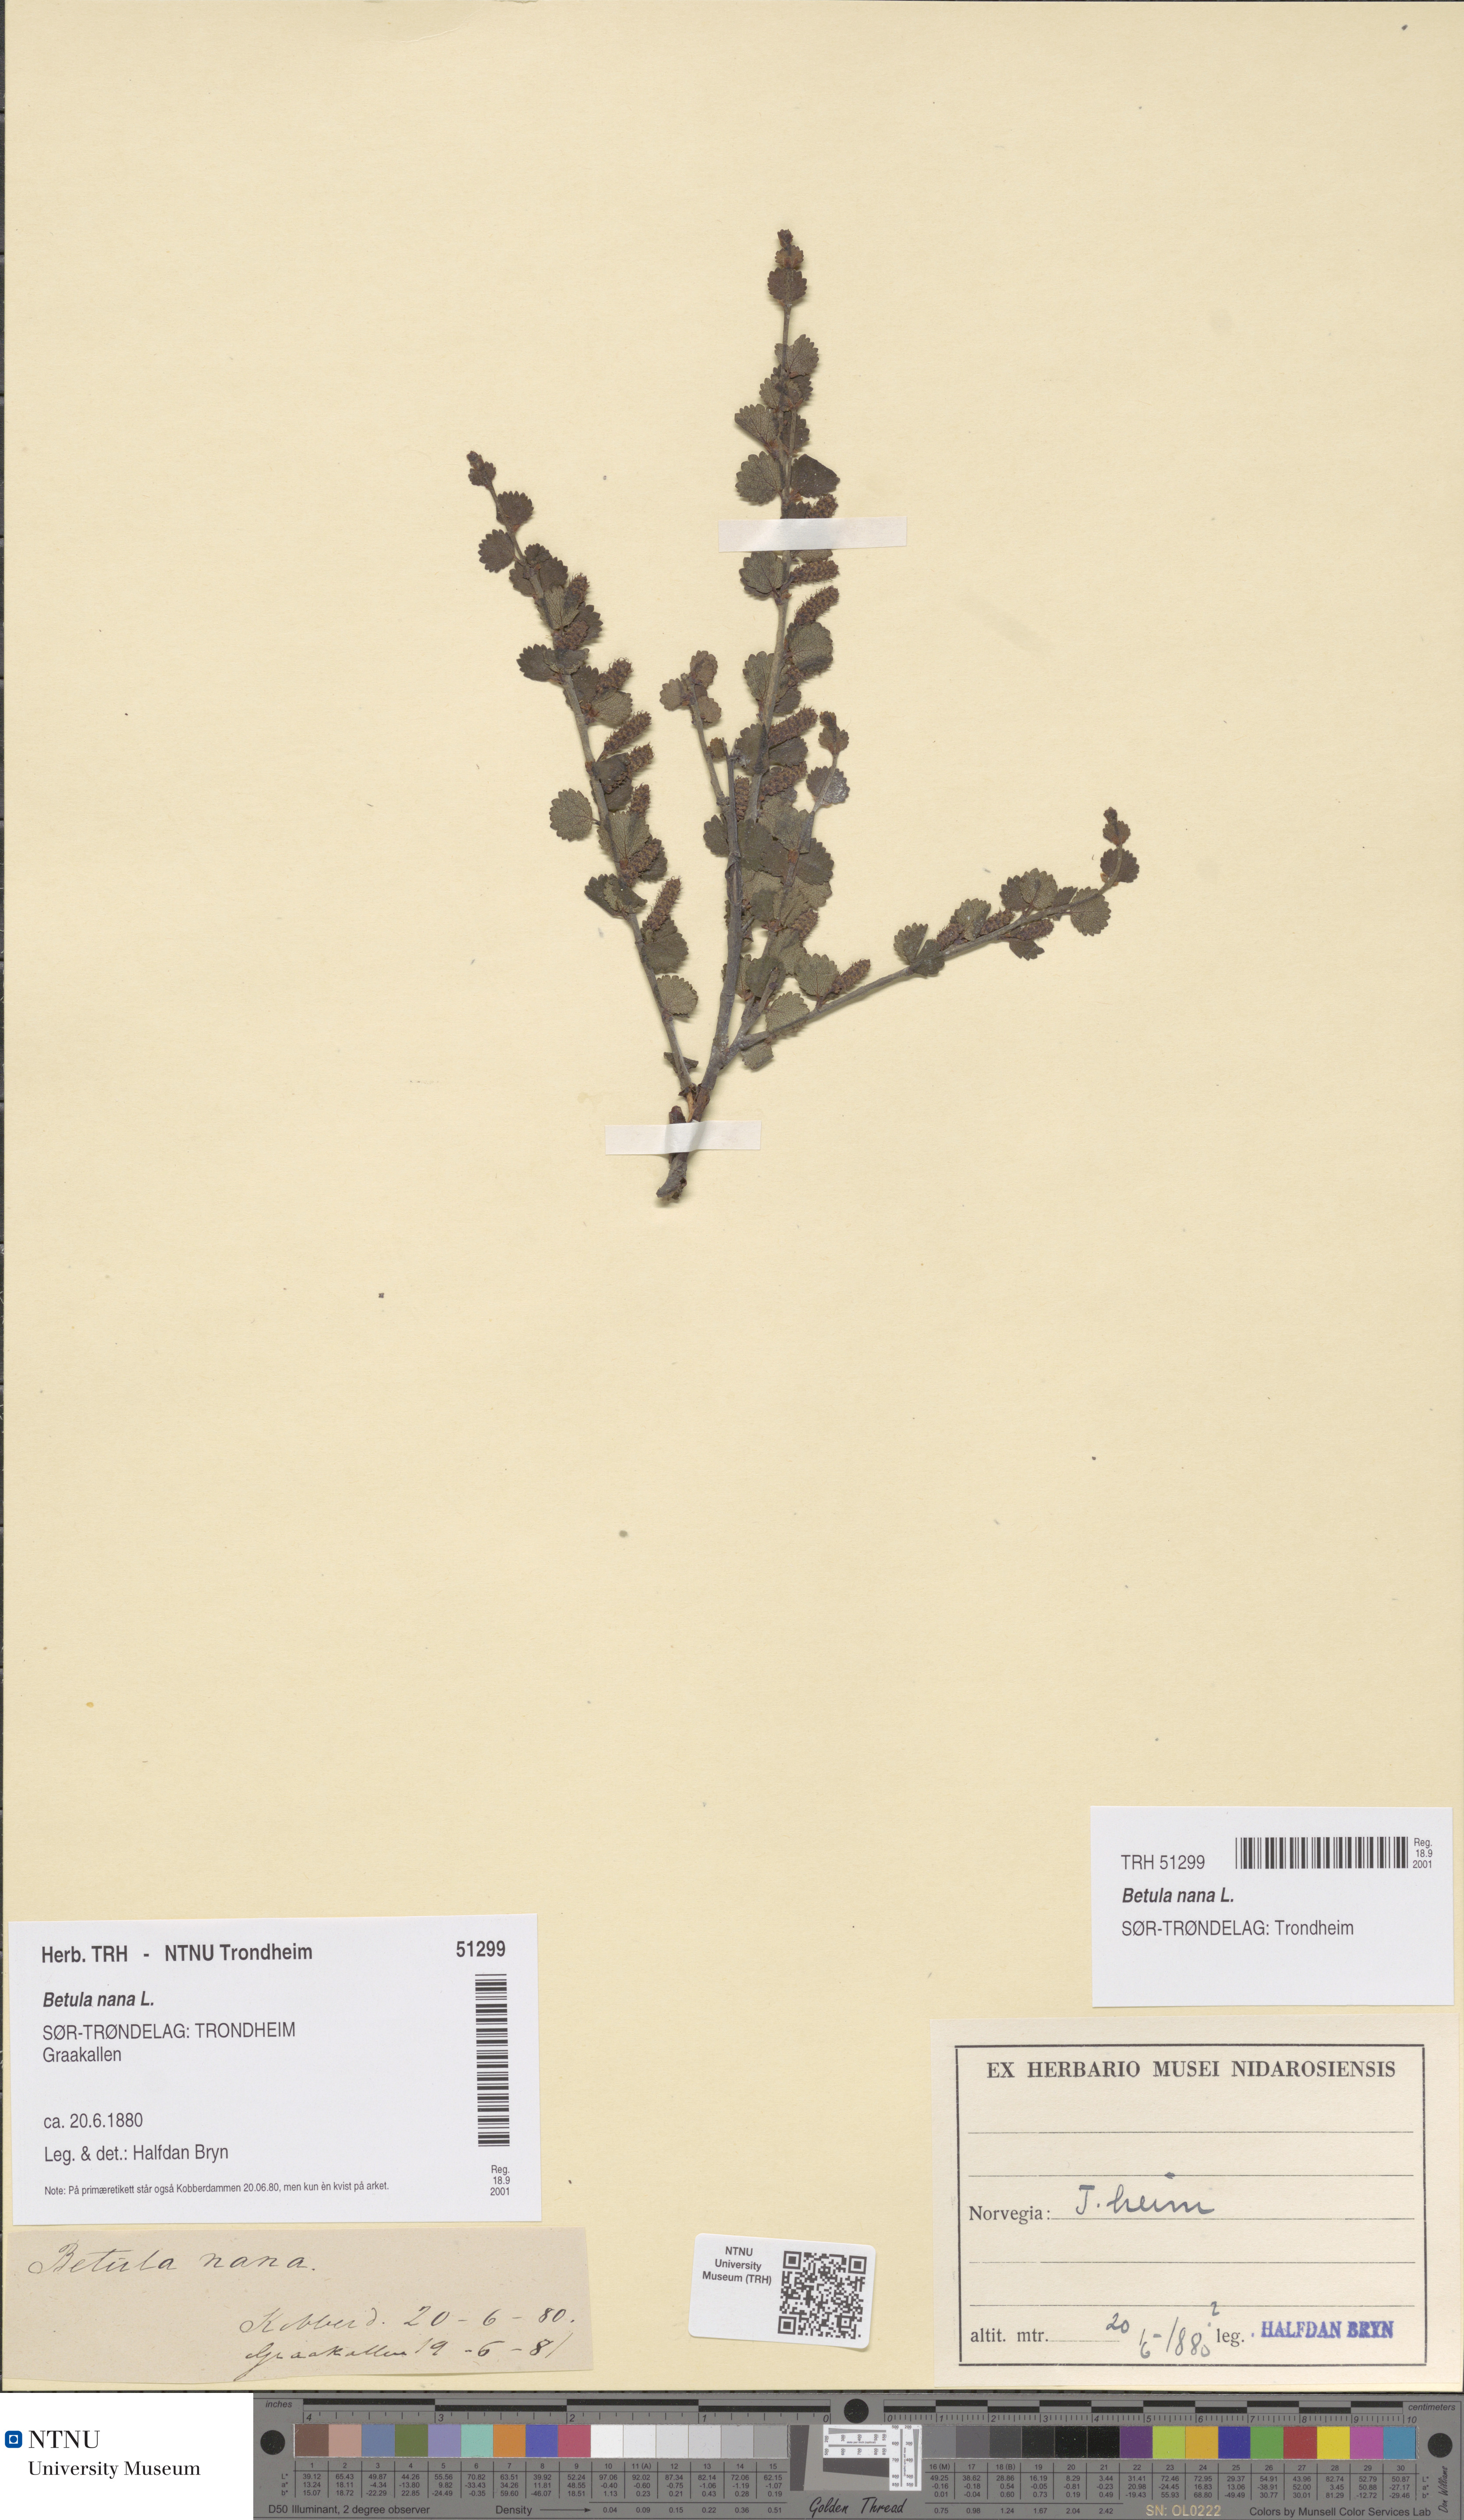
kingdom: Plantae
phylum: Tracheophyta
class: Magnoliopsida
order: Fagales
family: Betulaceae
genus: Betula
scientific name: Betula nana
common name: Arctic dwarf birch
